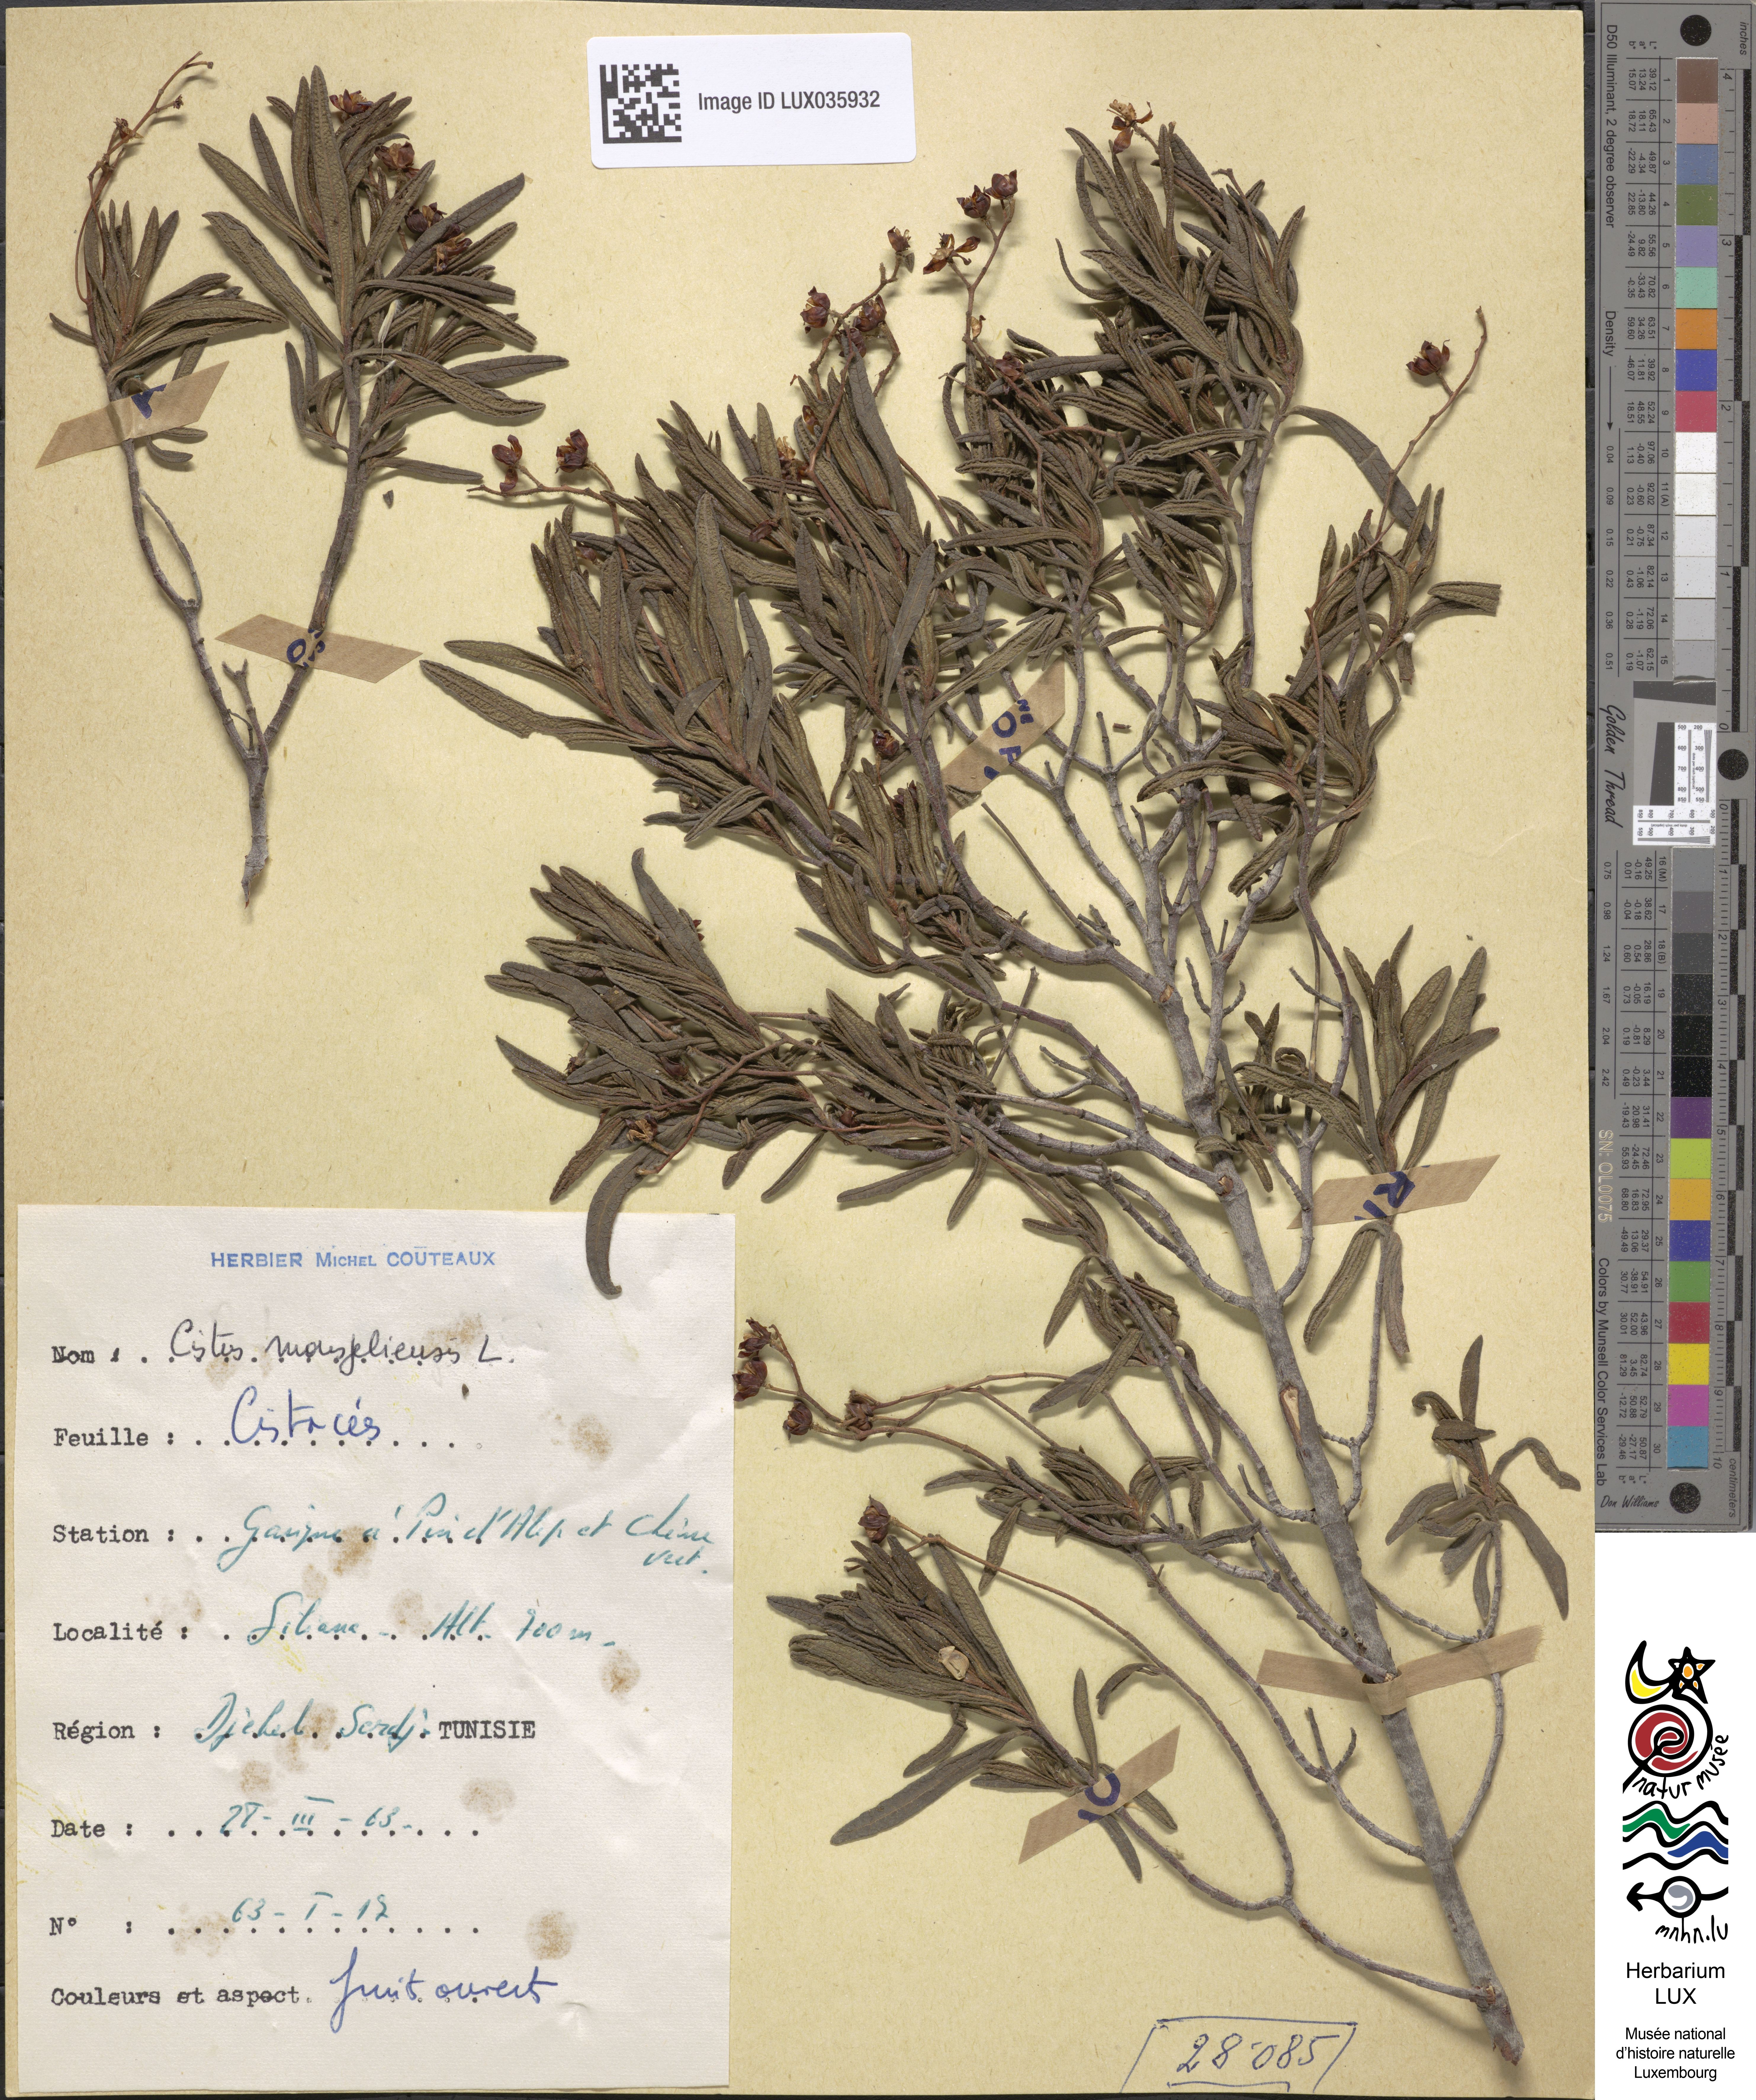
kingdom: Plantae
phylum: Tracheophyta
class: Magnoliopsida
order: Malvales
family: Cistaceae
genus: Cistus
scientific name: Cistus monspeliensis
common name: Montpelier cistus
